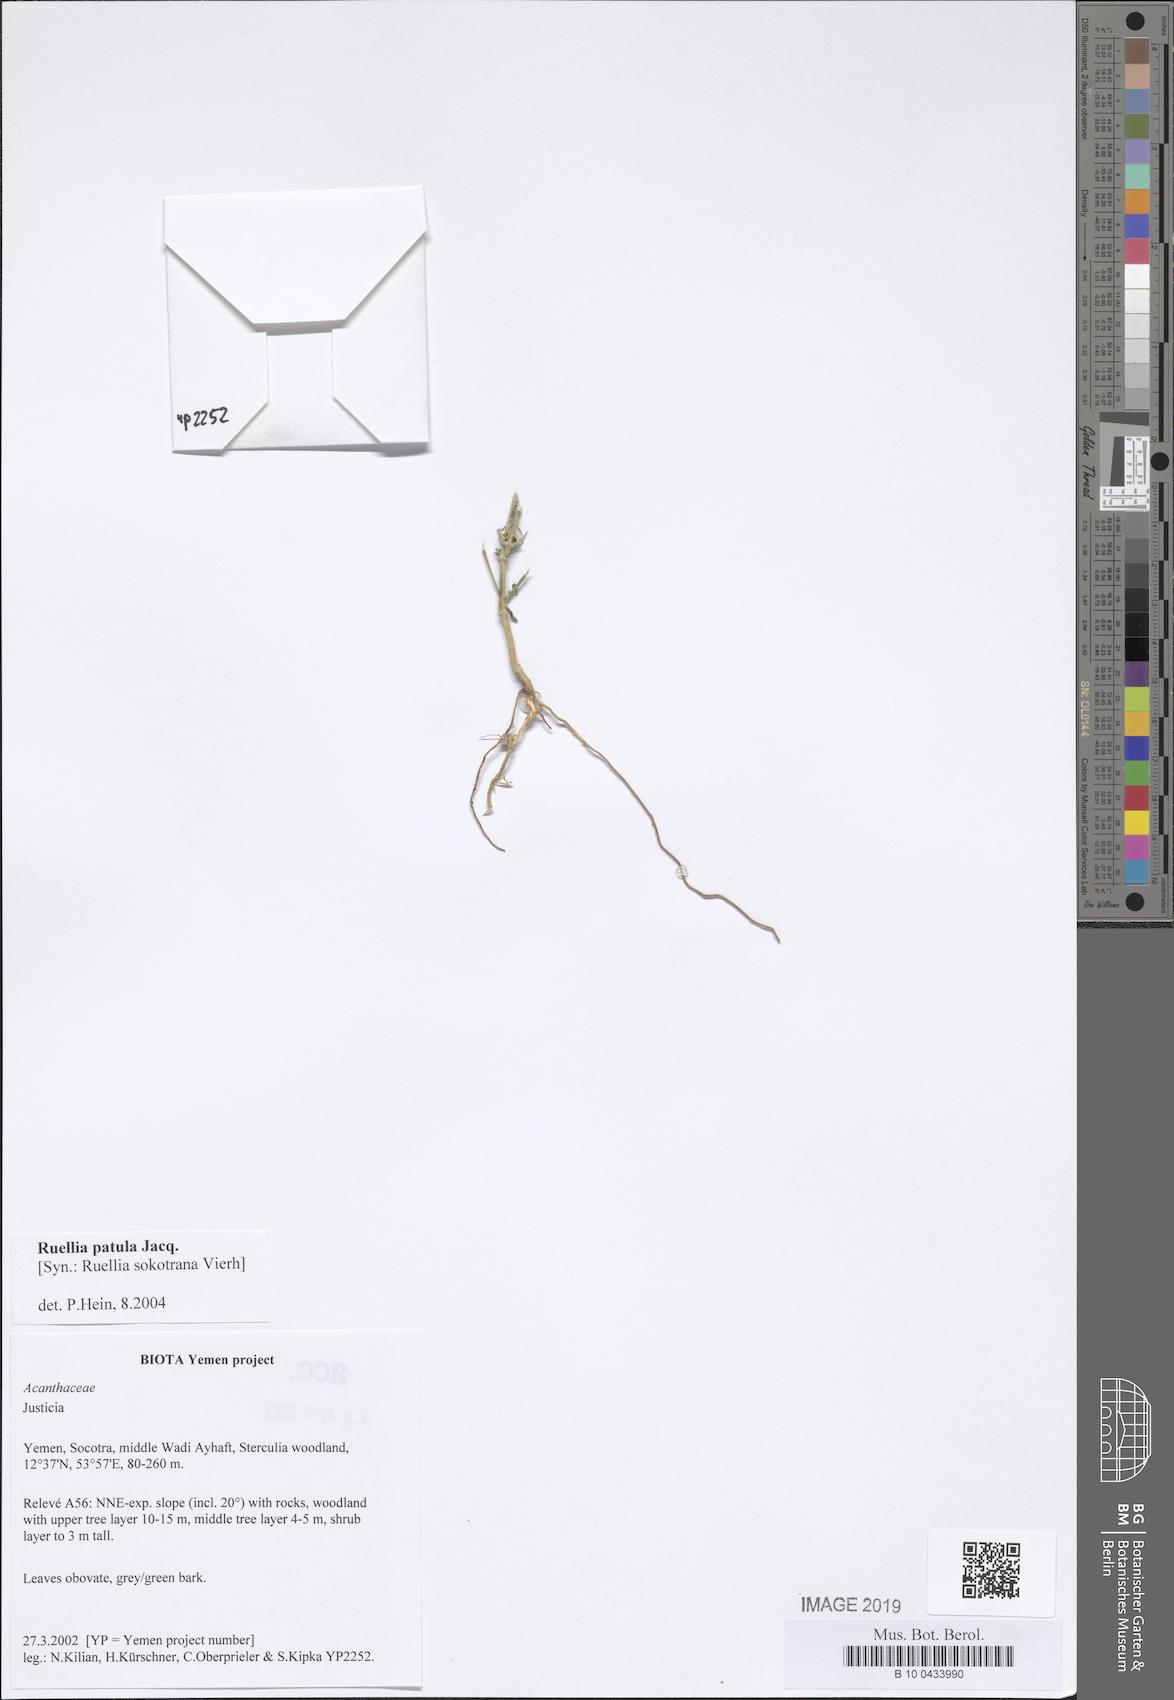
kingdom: Plantae
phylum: Tracheophyta
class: Magnoliopsida
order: Lamiales
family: Acanthaceae
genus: Ruellia
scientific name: Ruellia patula
